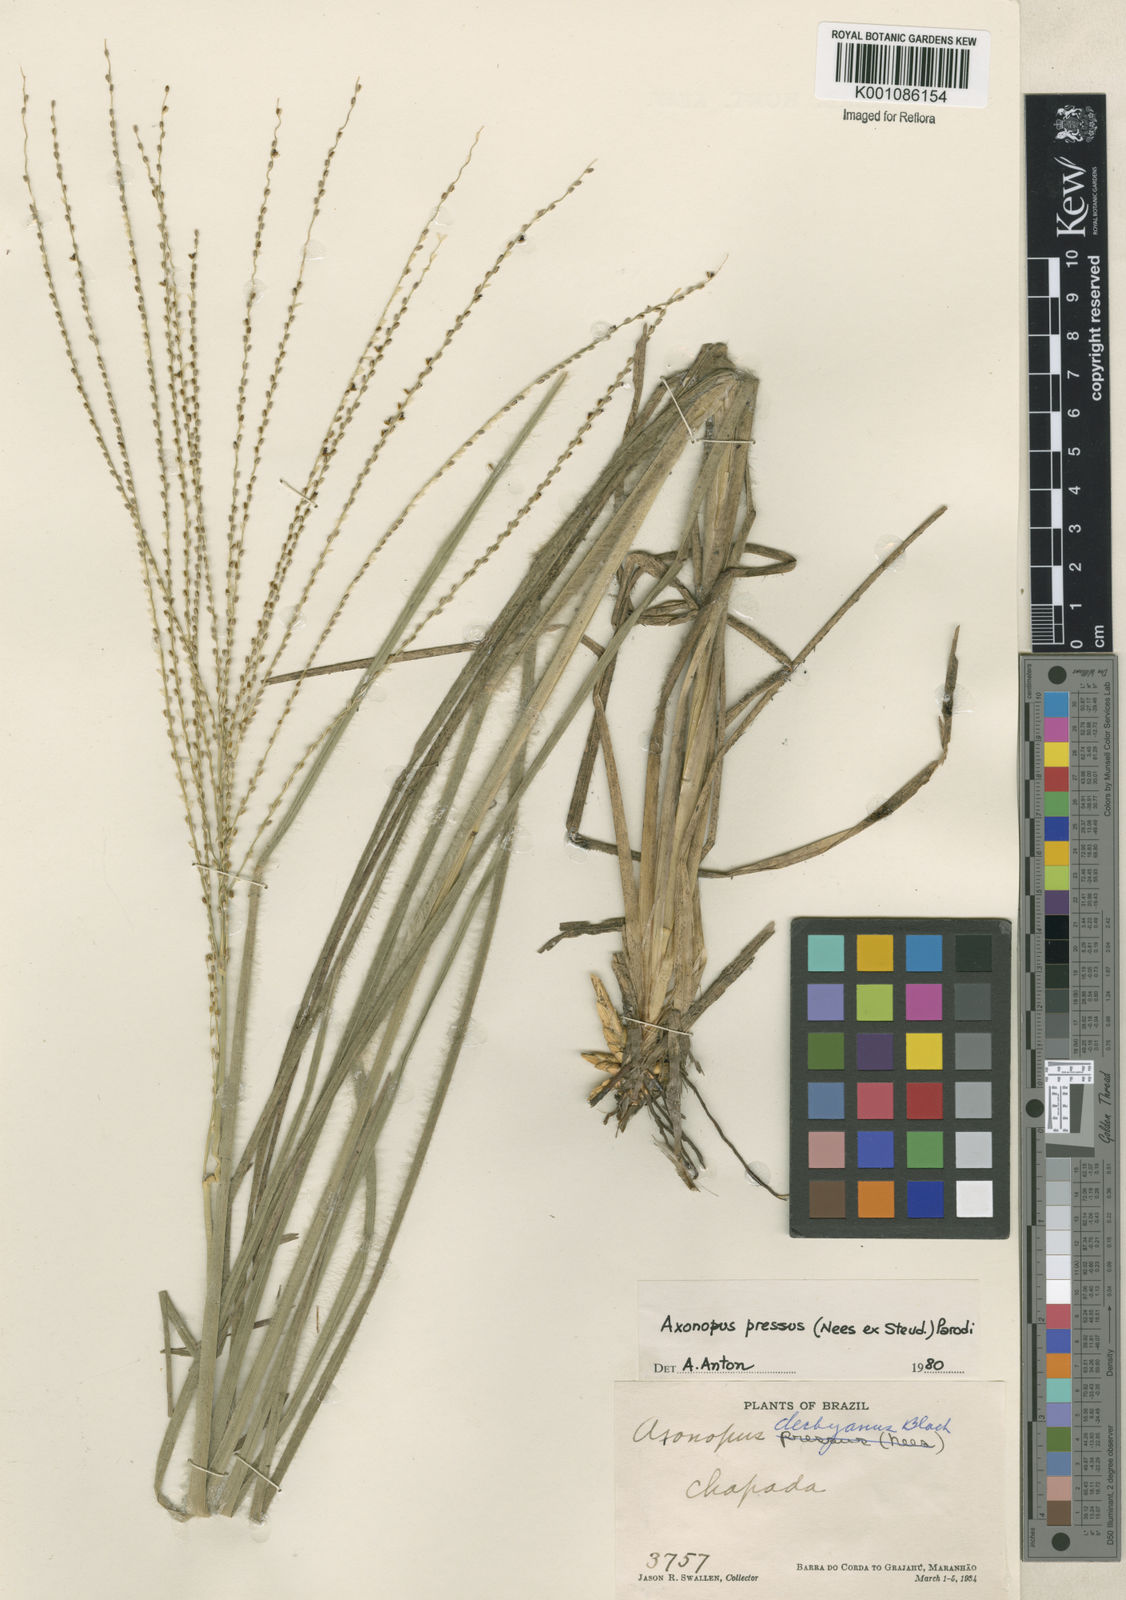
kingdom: Plantae
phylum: Tracheophyta
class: Liliopsida
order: Poales
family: Poaceae
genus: Axonopus
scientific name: Axonopus pressus
